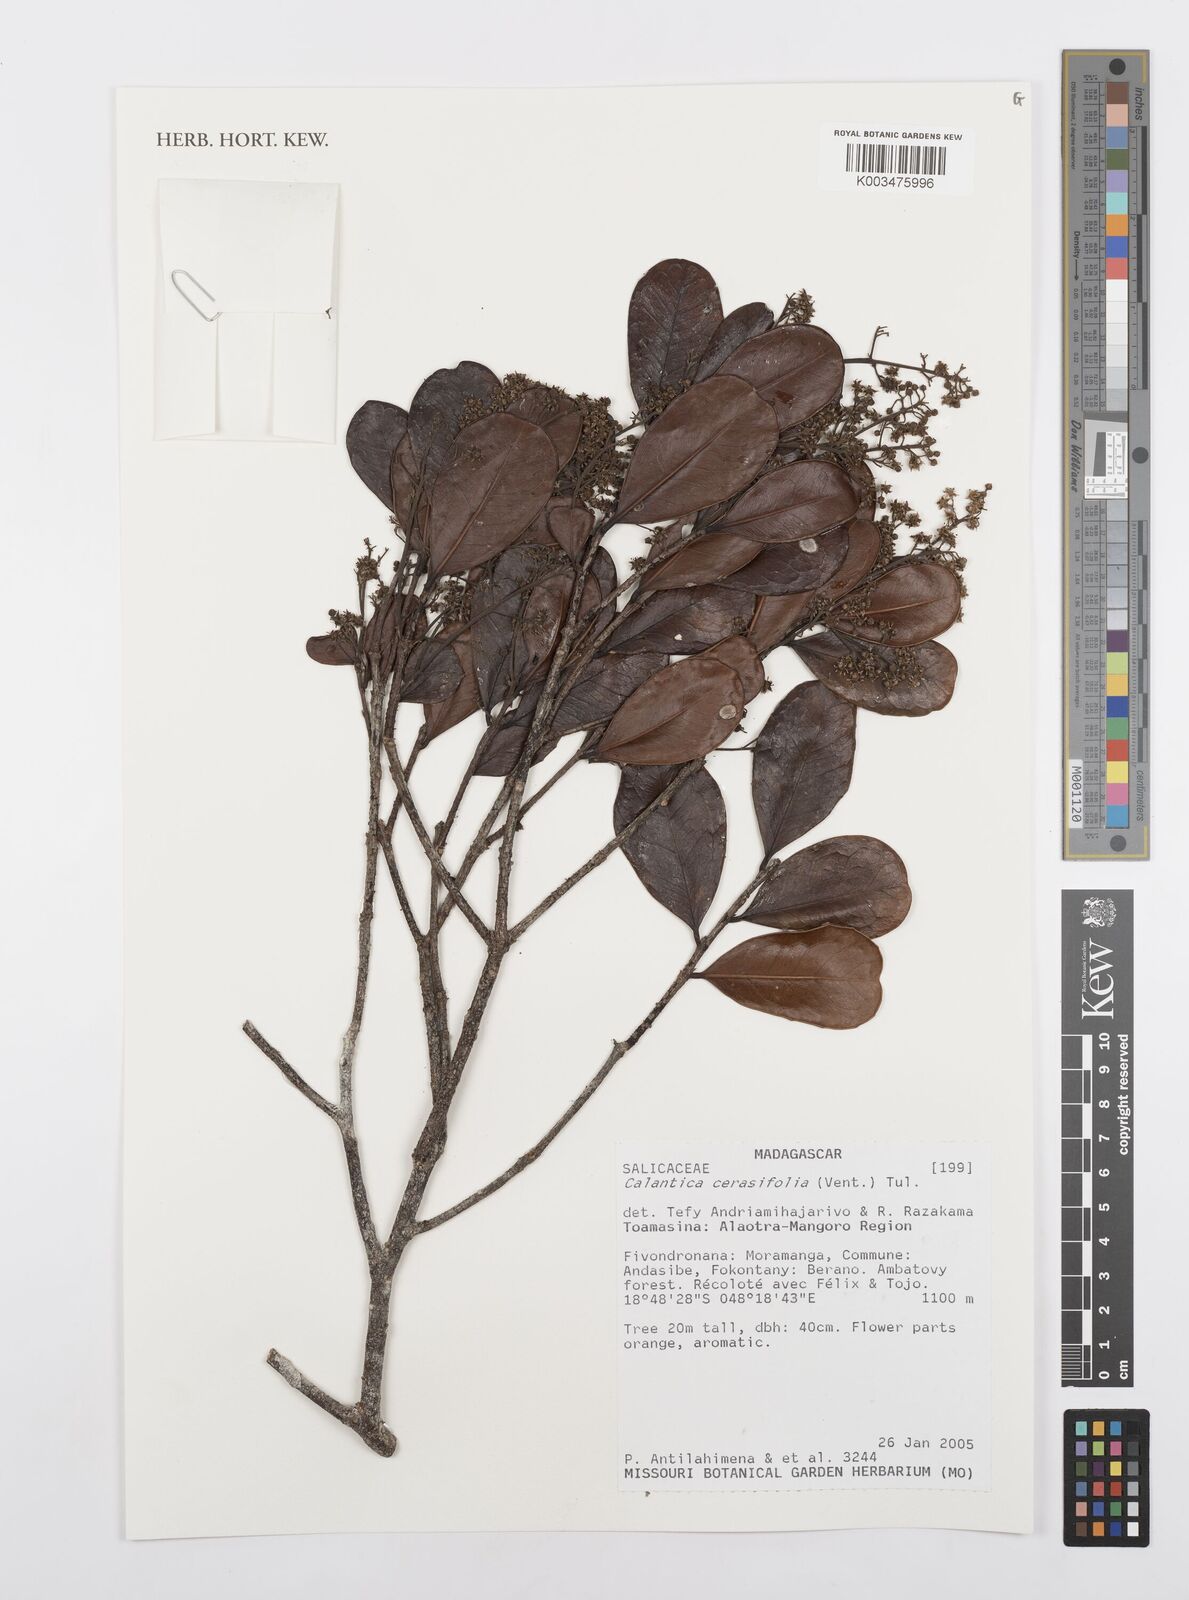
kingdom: Plantae
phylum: Tracheophyta
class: Magnoliopsida
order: Malpighiales
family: Salicaceae
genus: Calantica
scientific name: Calantica cerasifolia
